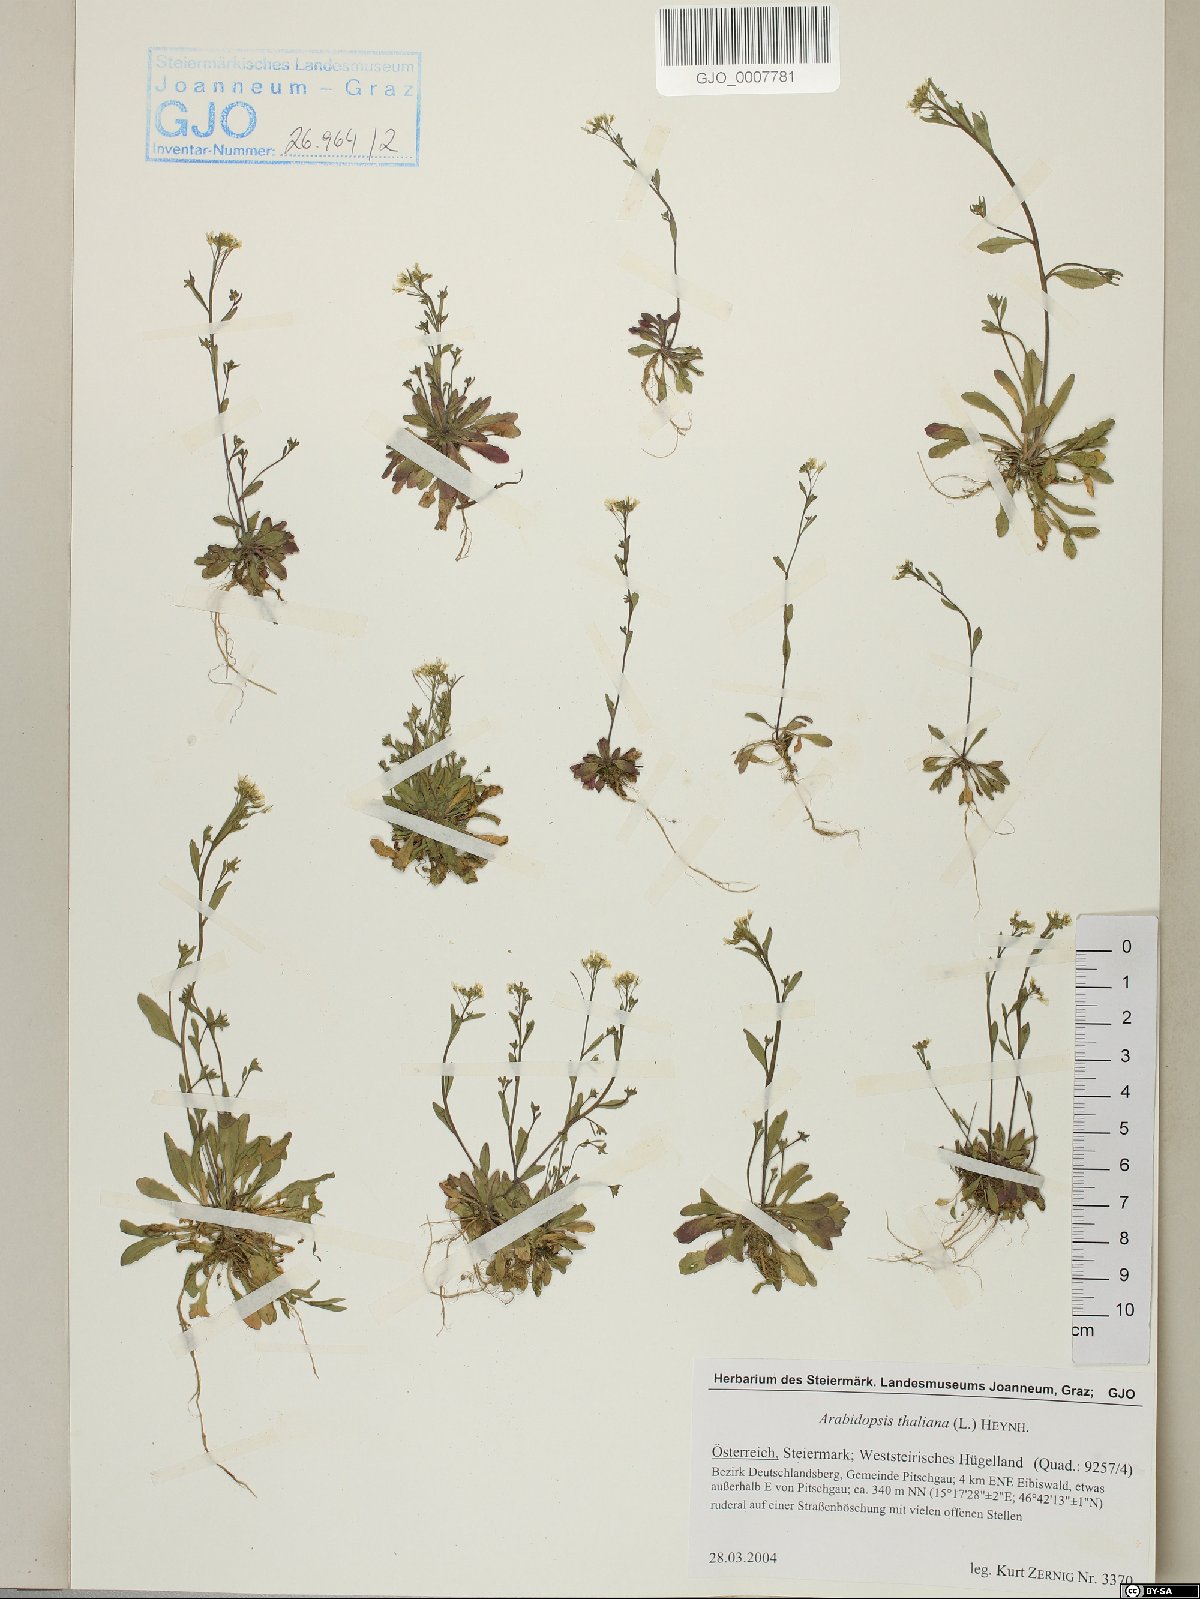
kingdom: Plantae
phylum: Tracheophyta
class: Magnoliopsida
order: Brassicales
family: Brassicaceae
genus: Arabidopsis
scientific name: Arabidopsis thaliana
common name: Thale cress
